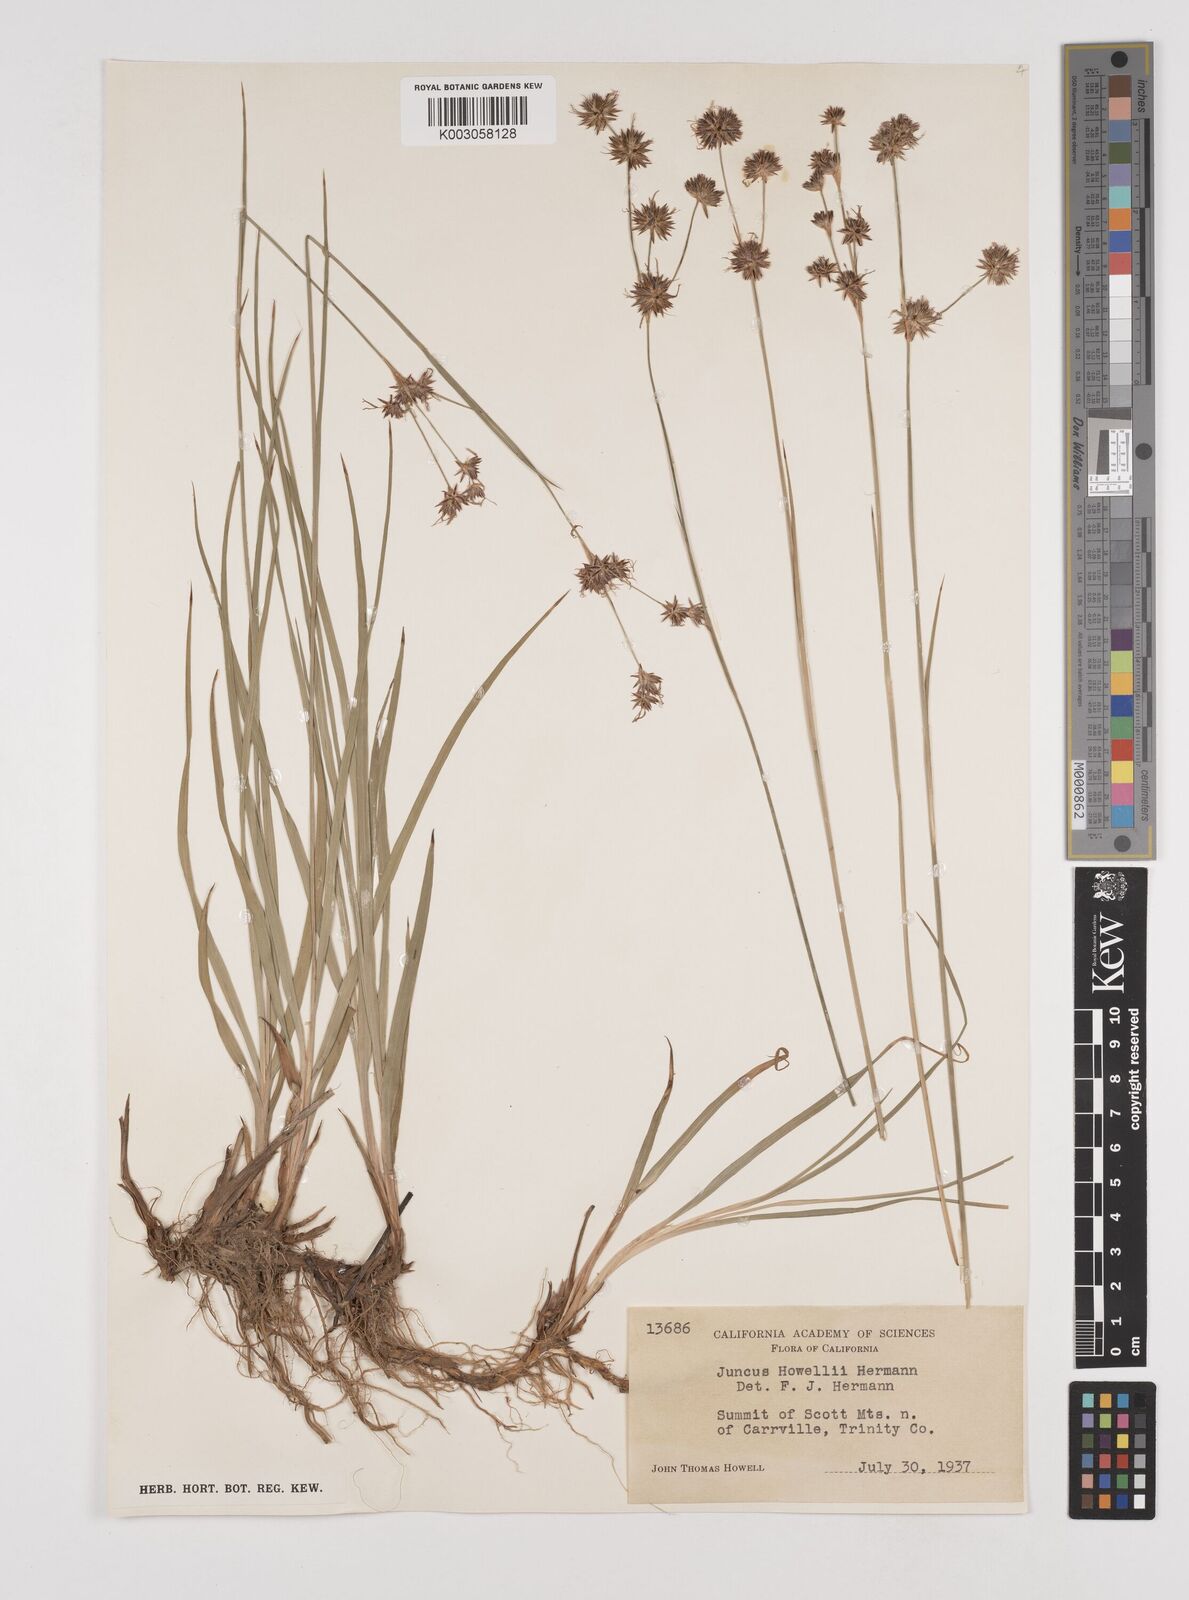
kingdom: Plantae
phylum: Tracheophyta
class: Liliopsida
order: Poales
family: Juncaceae
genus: Juncus
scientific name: Juncus howellii
